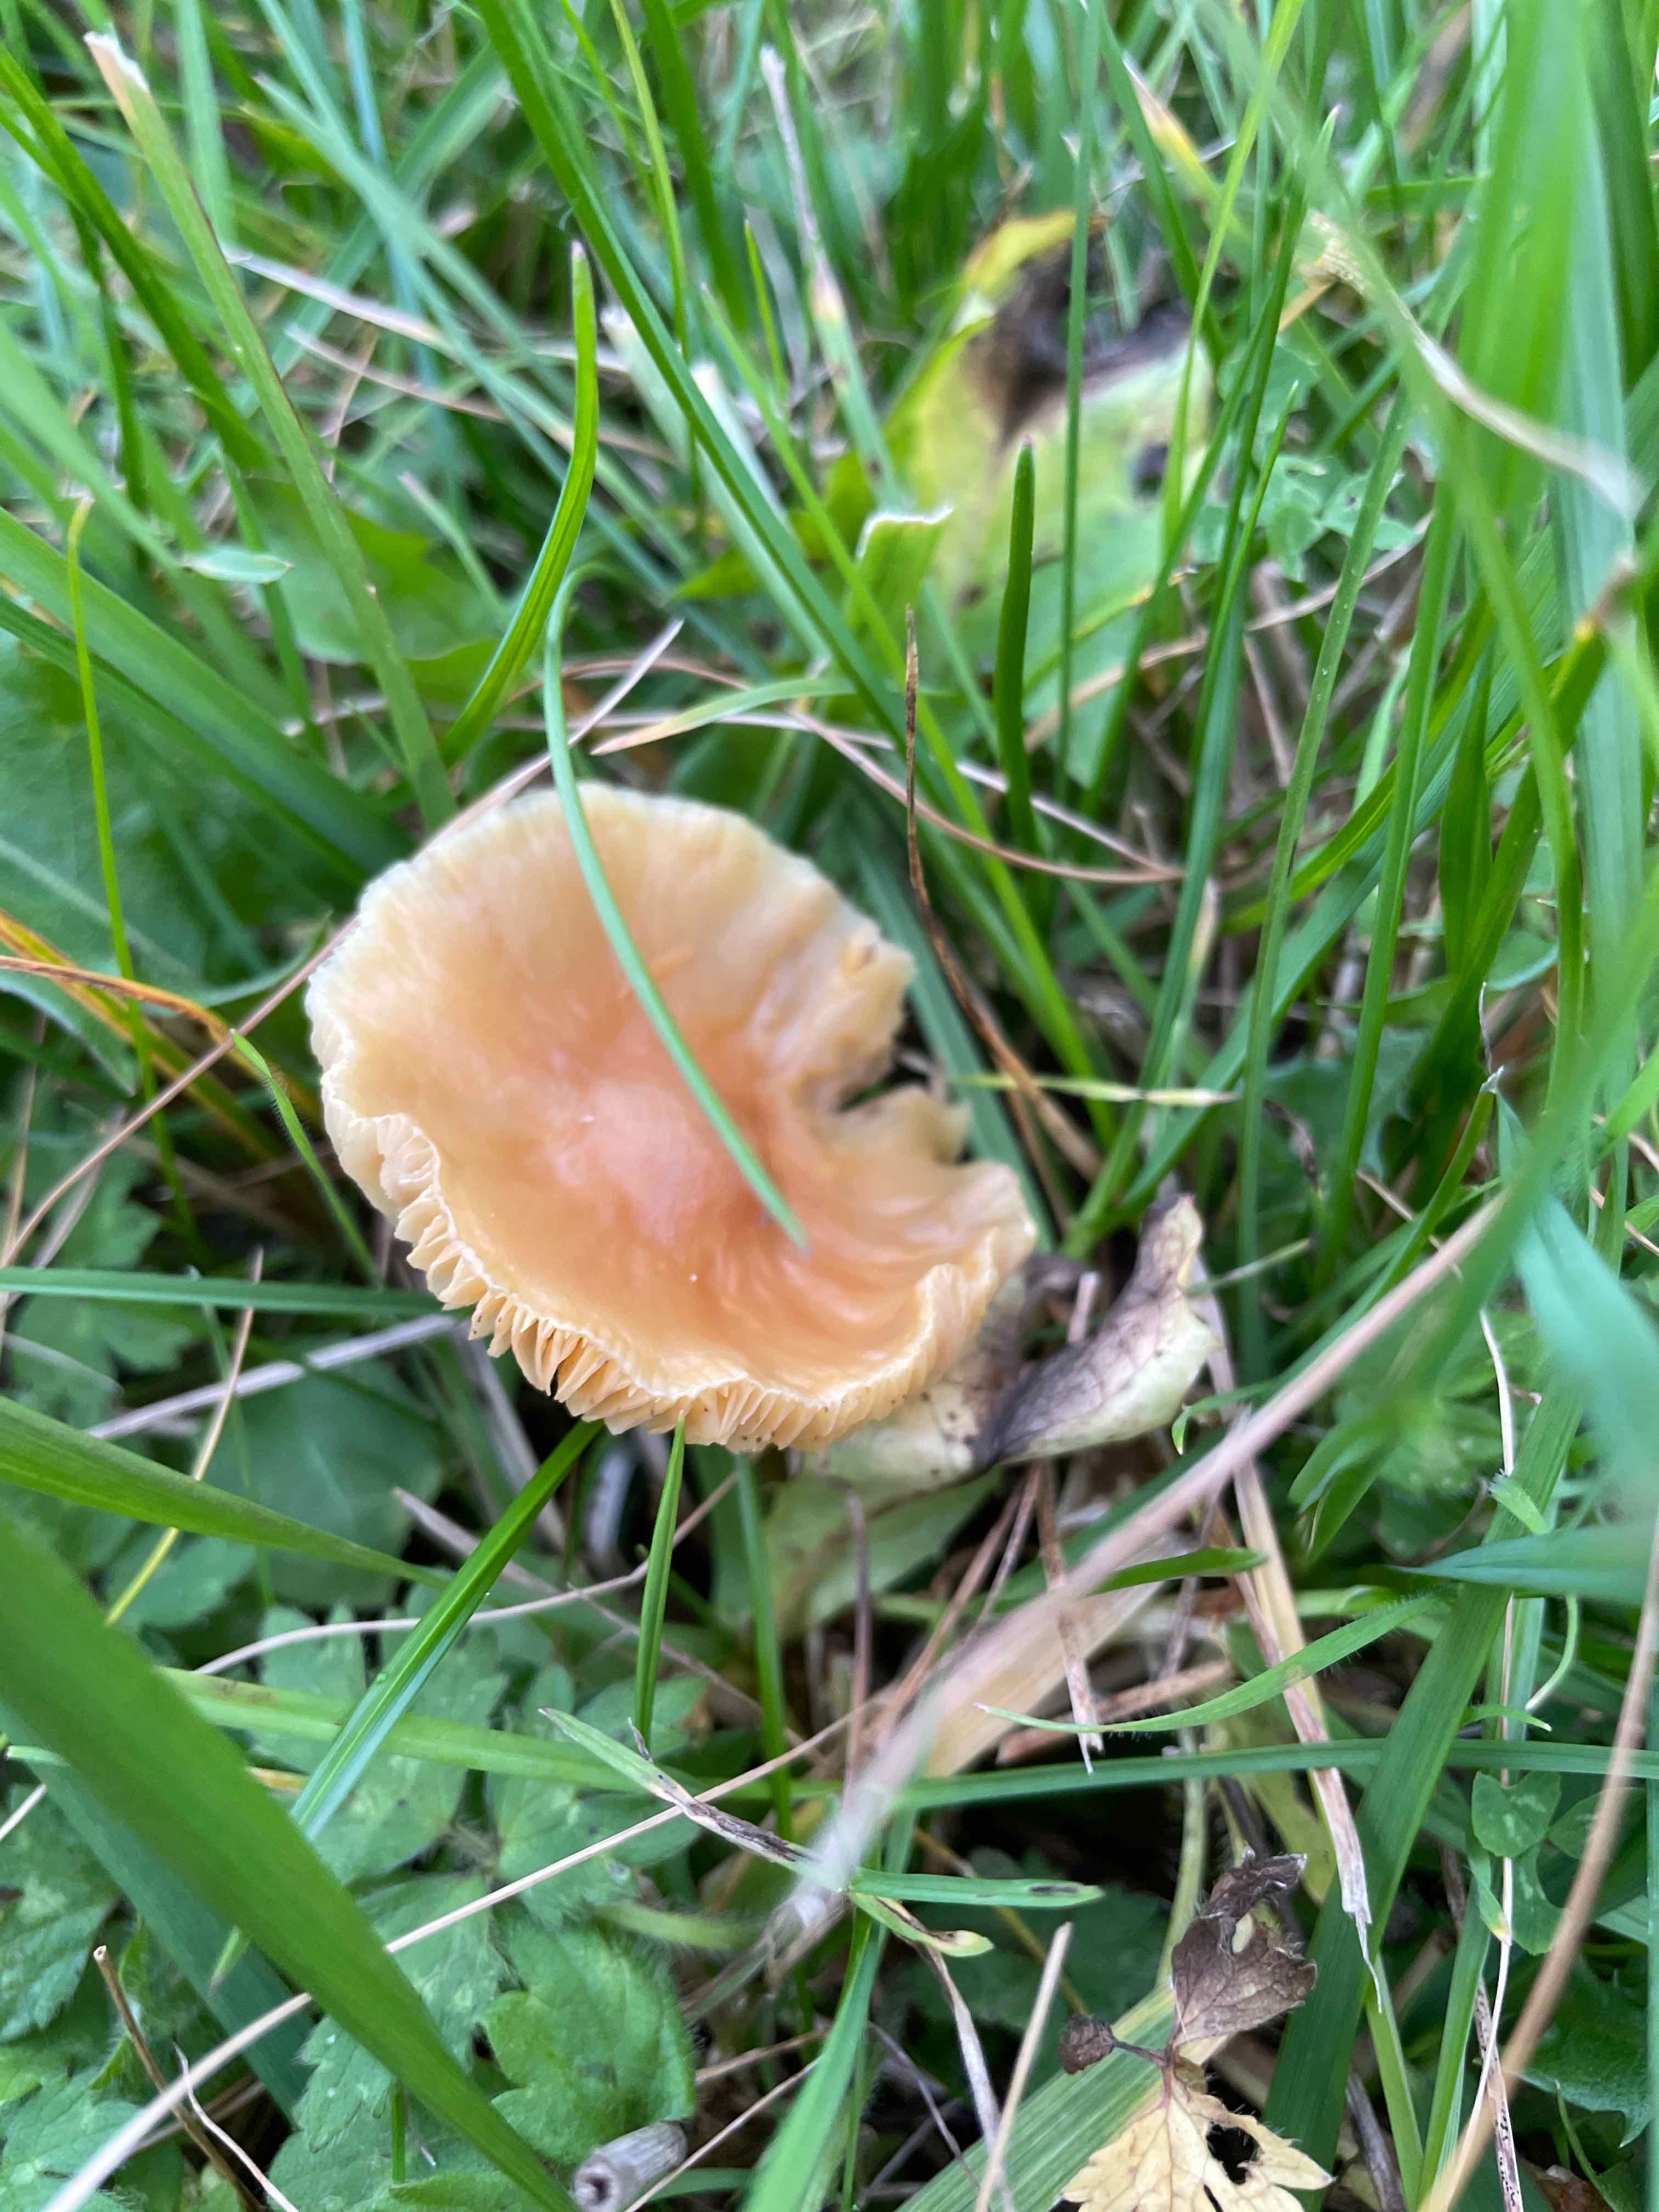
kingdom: Fungi
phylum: Basidiomycota
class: Agaricomycetes
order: Agaricales
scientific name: Agaricales
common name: champignonordenen
